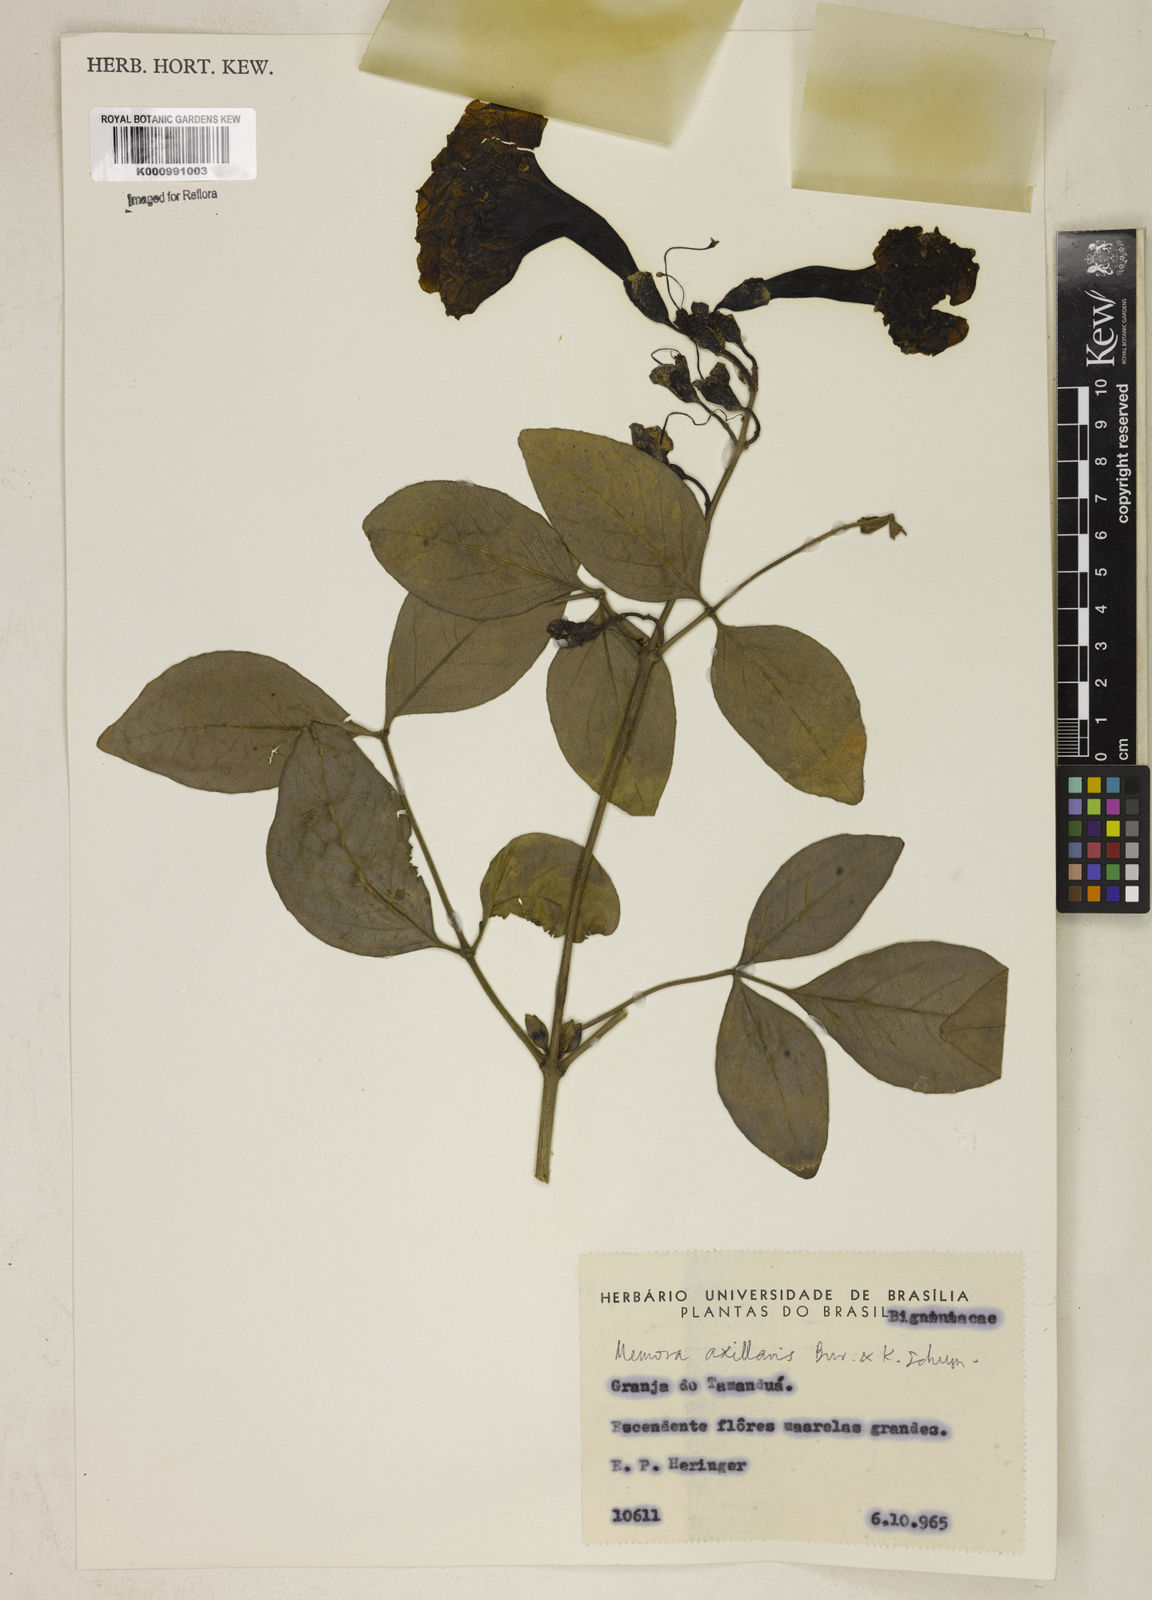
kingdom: Plantae
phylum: Tracheophyta
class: Magnoliopsida
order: Lamiales
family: Bignoniaceae
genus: Adenocalymma
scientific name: Adenocalymma axillare
